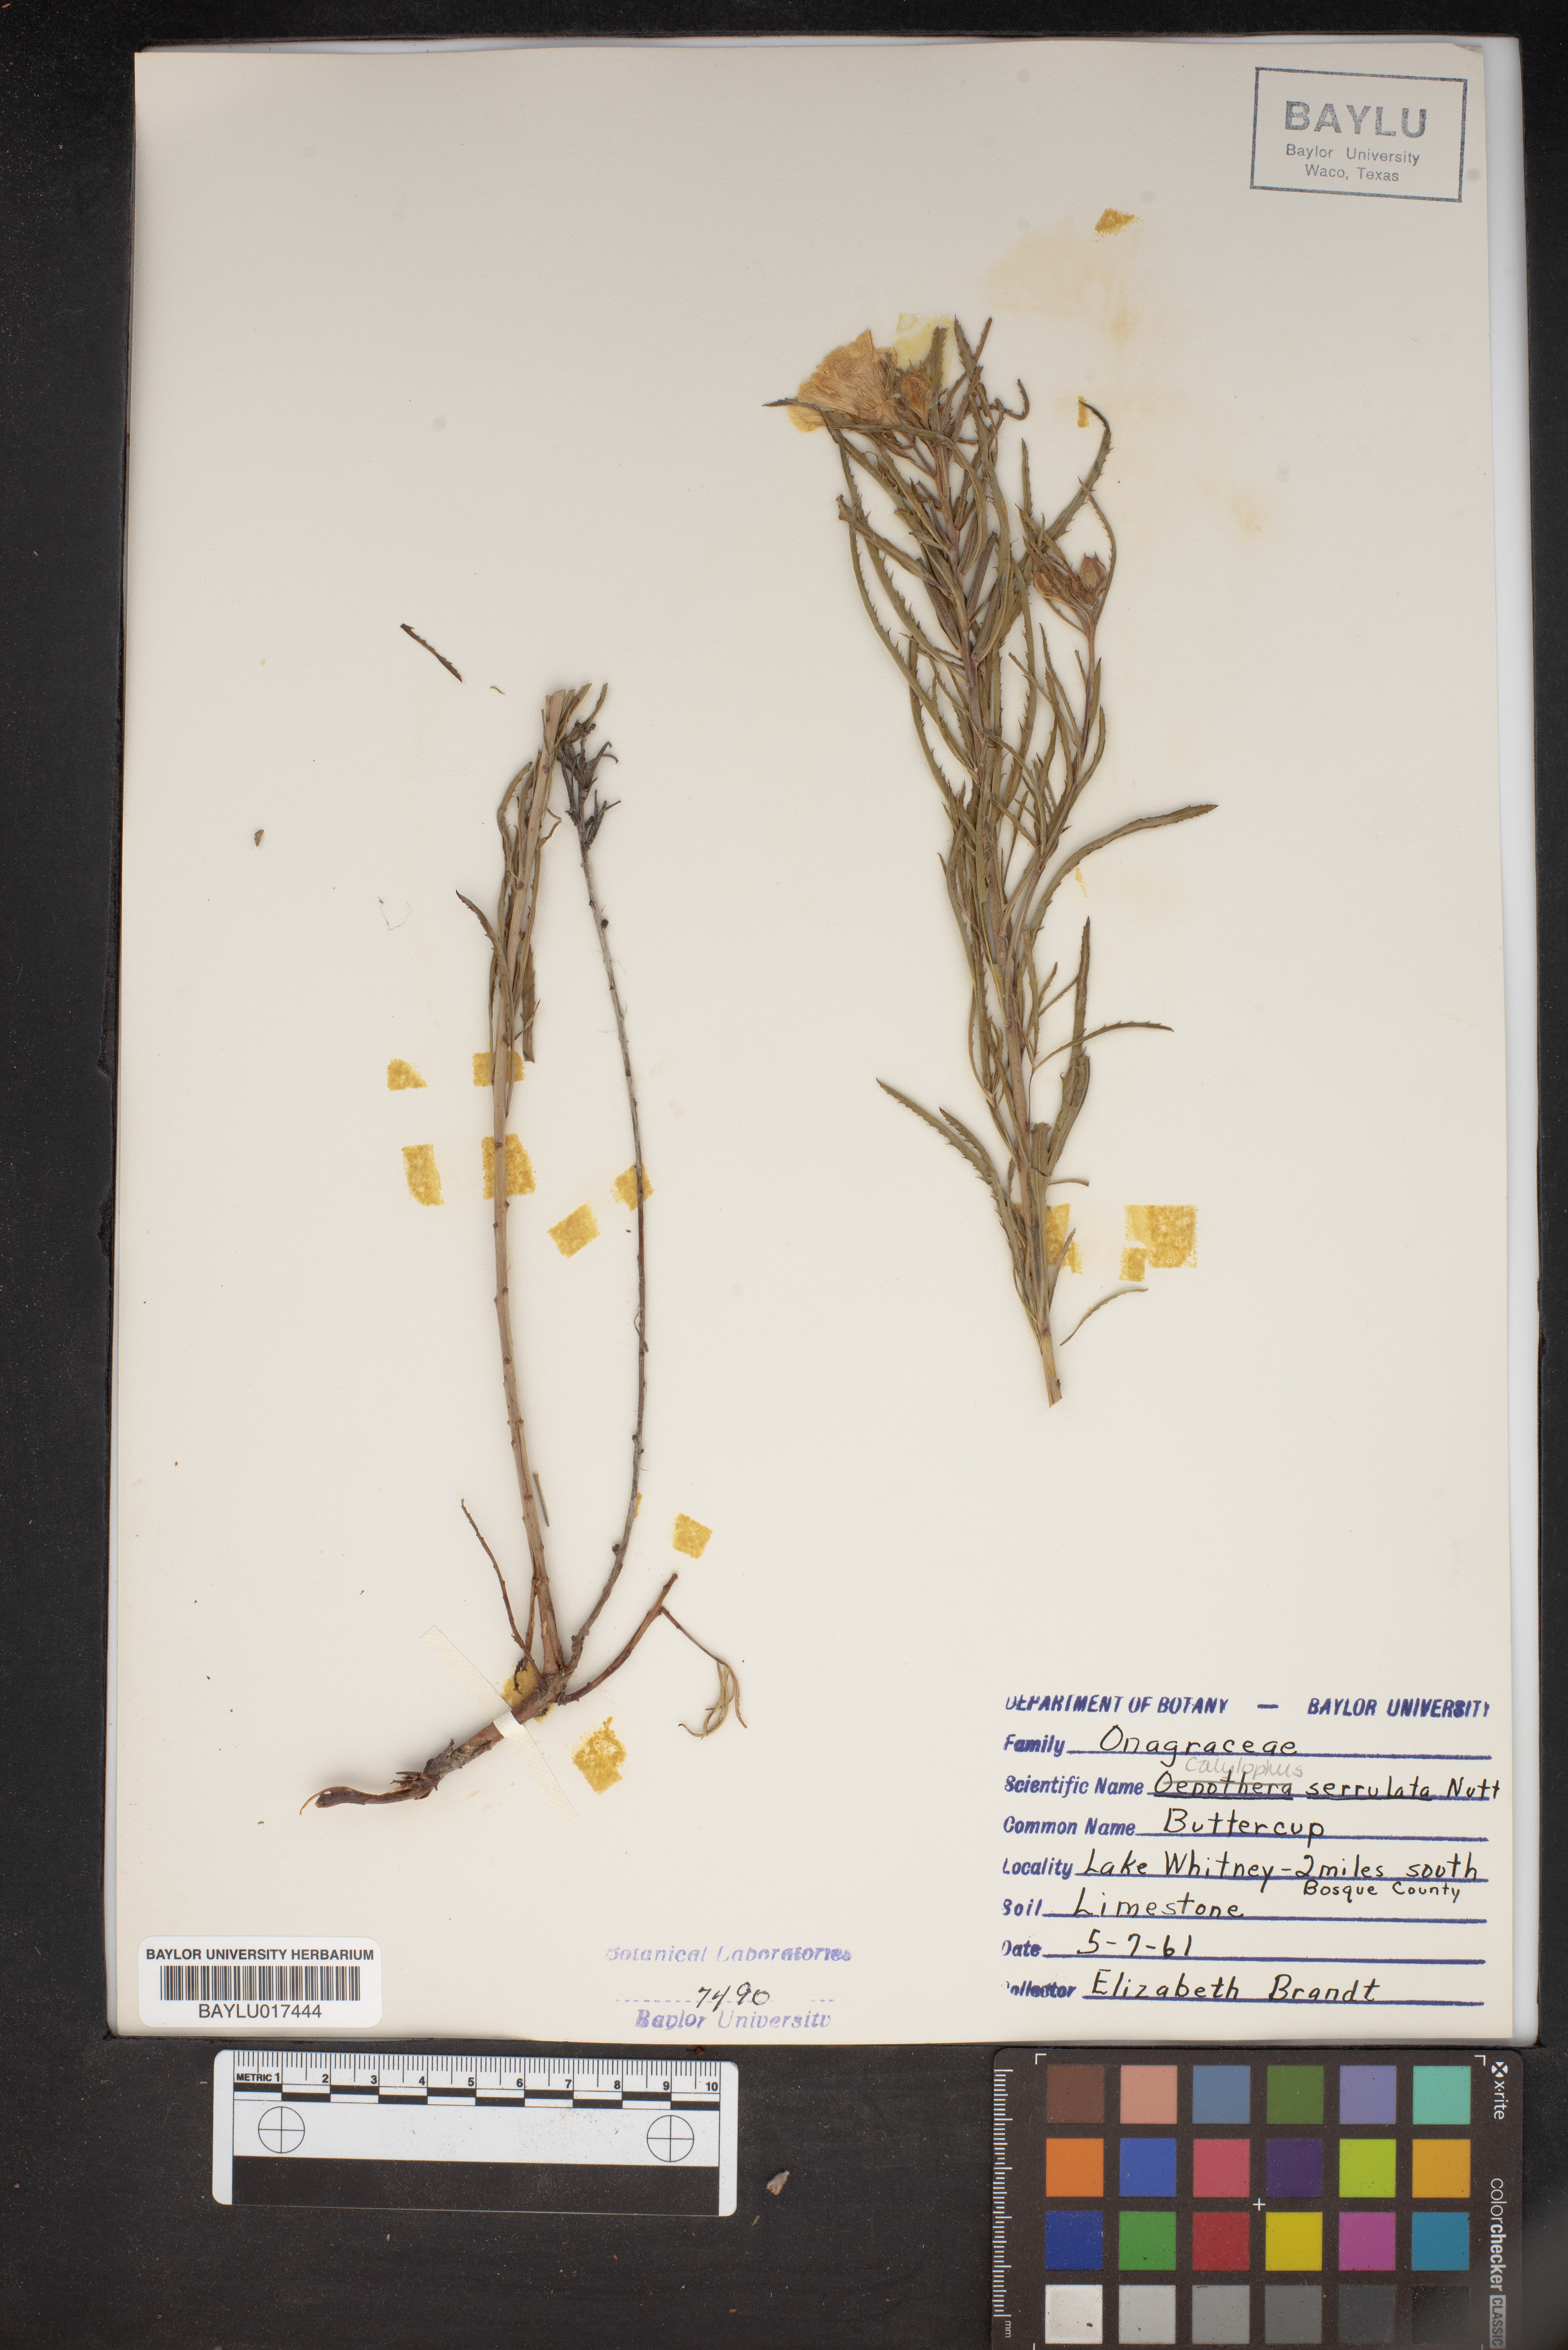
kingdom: Plantae
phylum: Tracheophyta
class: Magnoliopsida
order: Myrtales
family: Onagraceae
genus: Oenothera
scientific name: Oenothera serrulata
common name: Half-shrub calylophus
